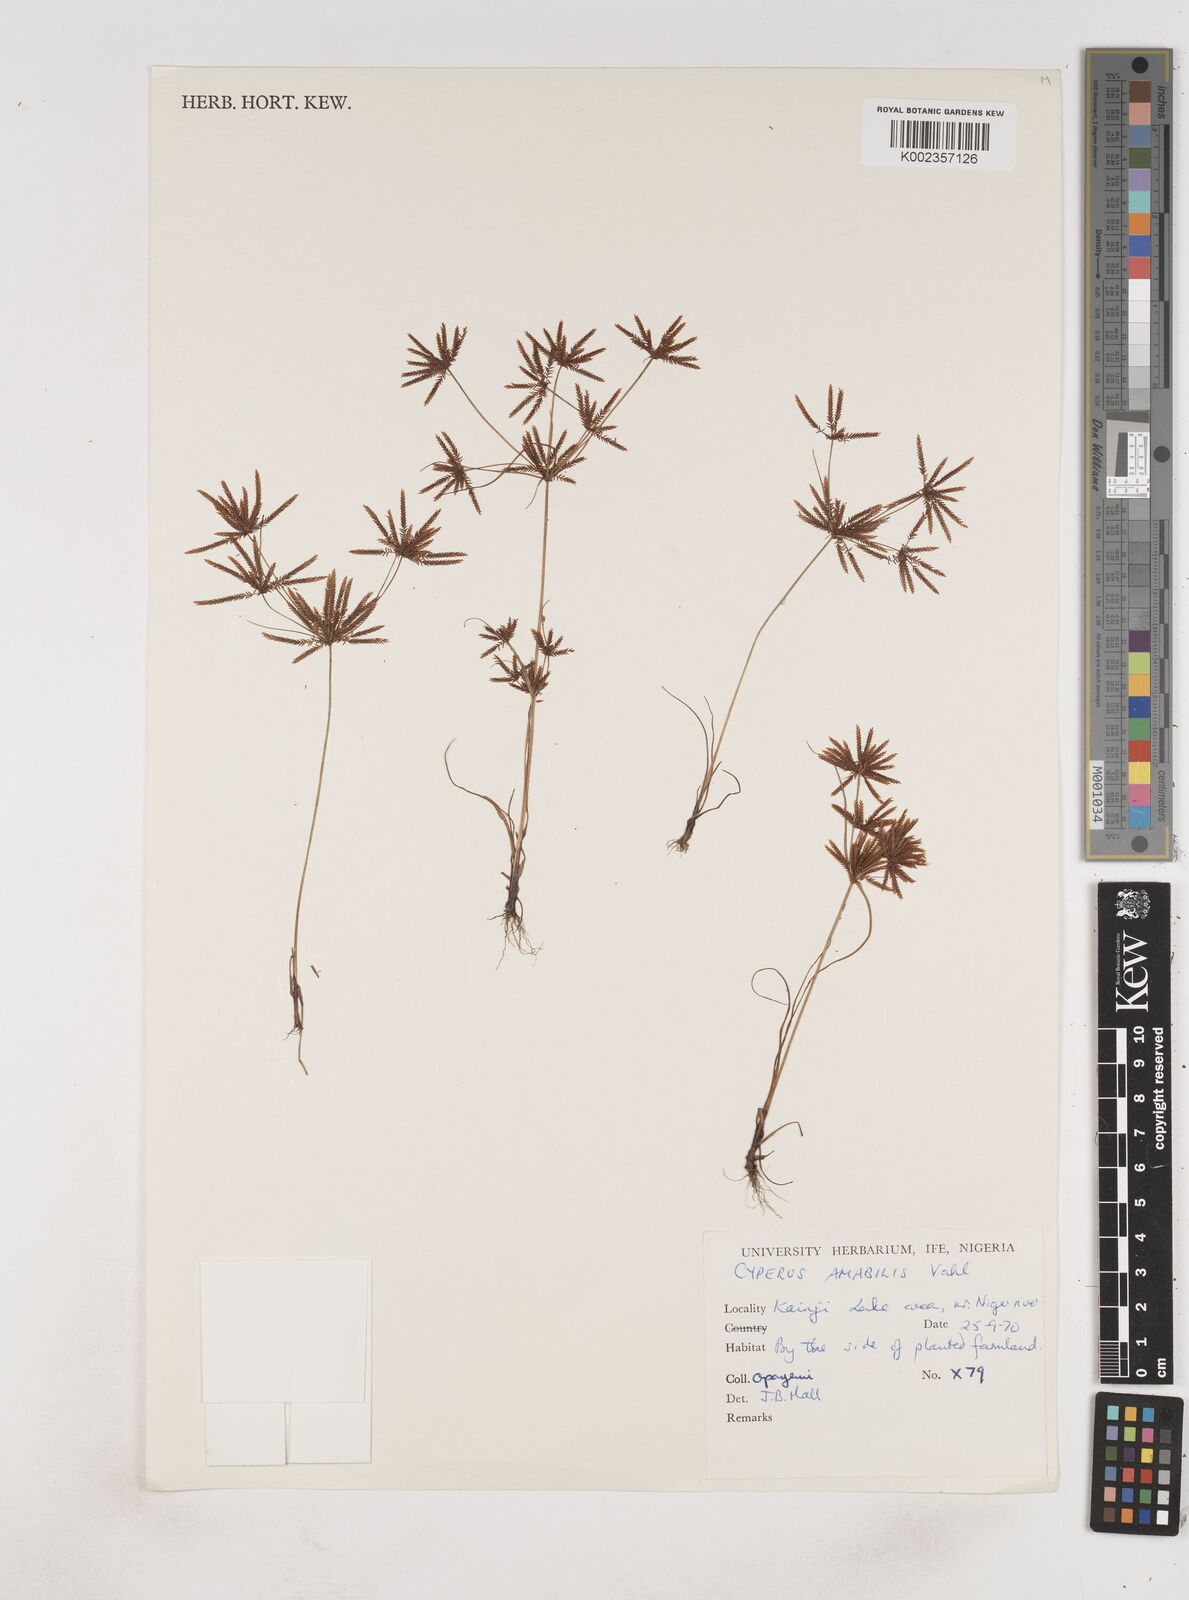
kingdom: Plantae
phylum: Tracheophyta
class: Liliopsida
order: Poales
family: Cyperaceae
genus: Cyperus
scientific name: Cyperus amabilis
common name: Foothill flat sedge
